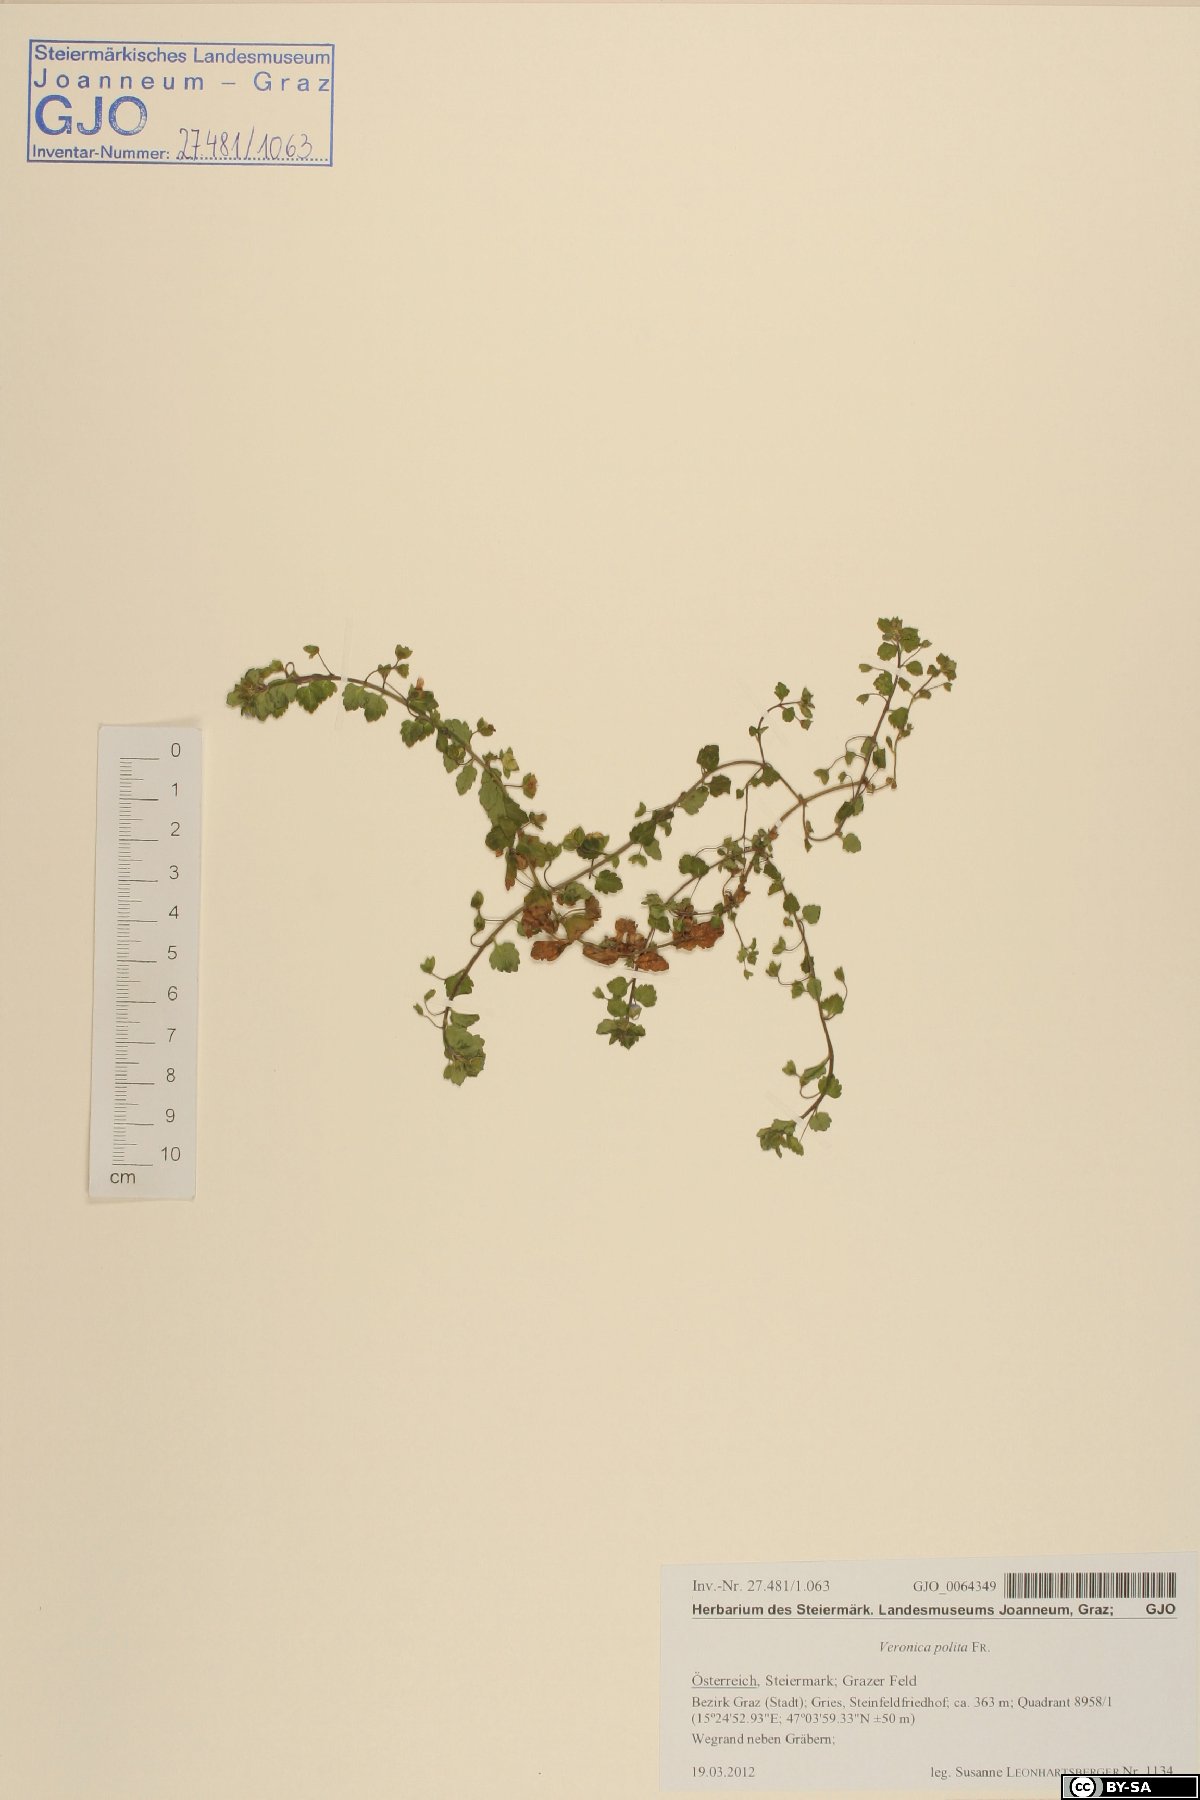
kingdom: Plantae
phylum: Tracheophyta
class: Magnoliopsida
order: Lamiales
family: Plantaginaceae
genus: Veronica
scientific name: Veronica polita
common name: Grey field-speedwell
